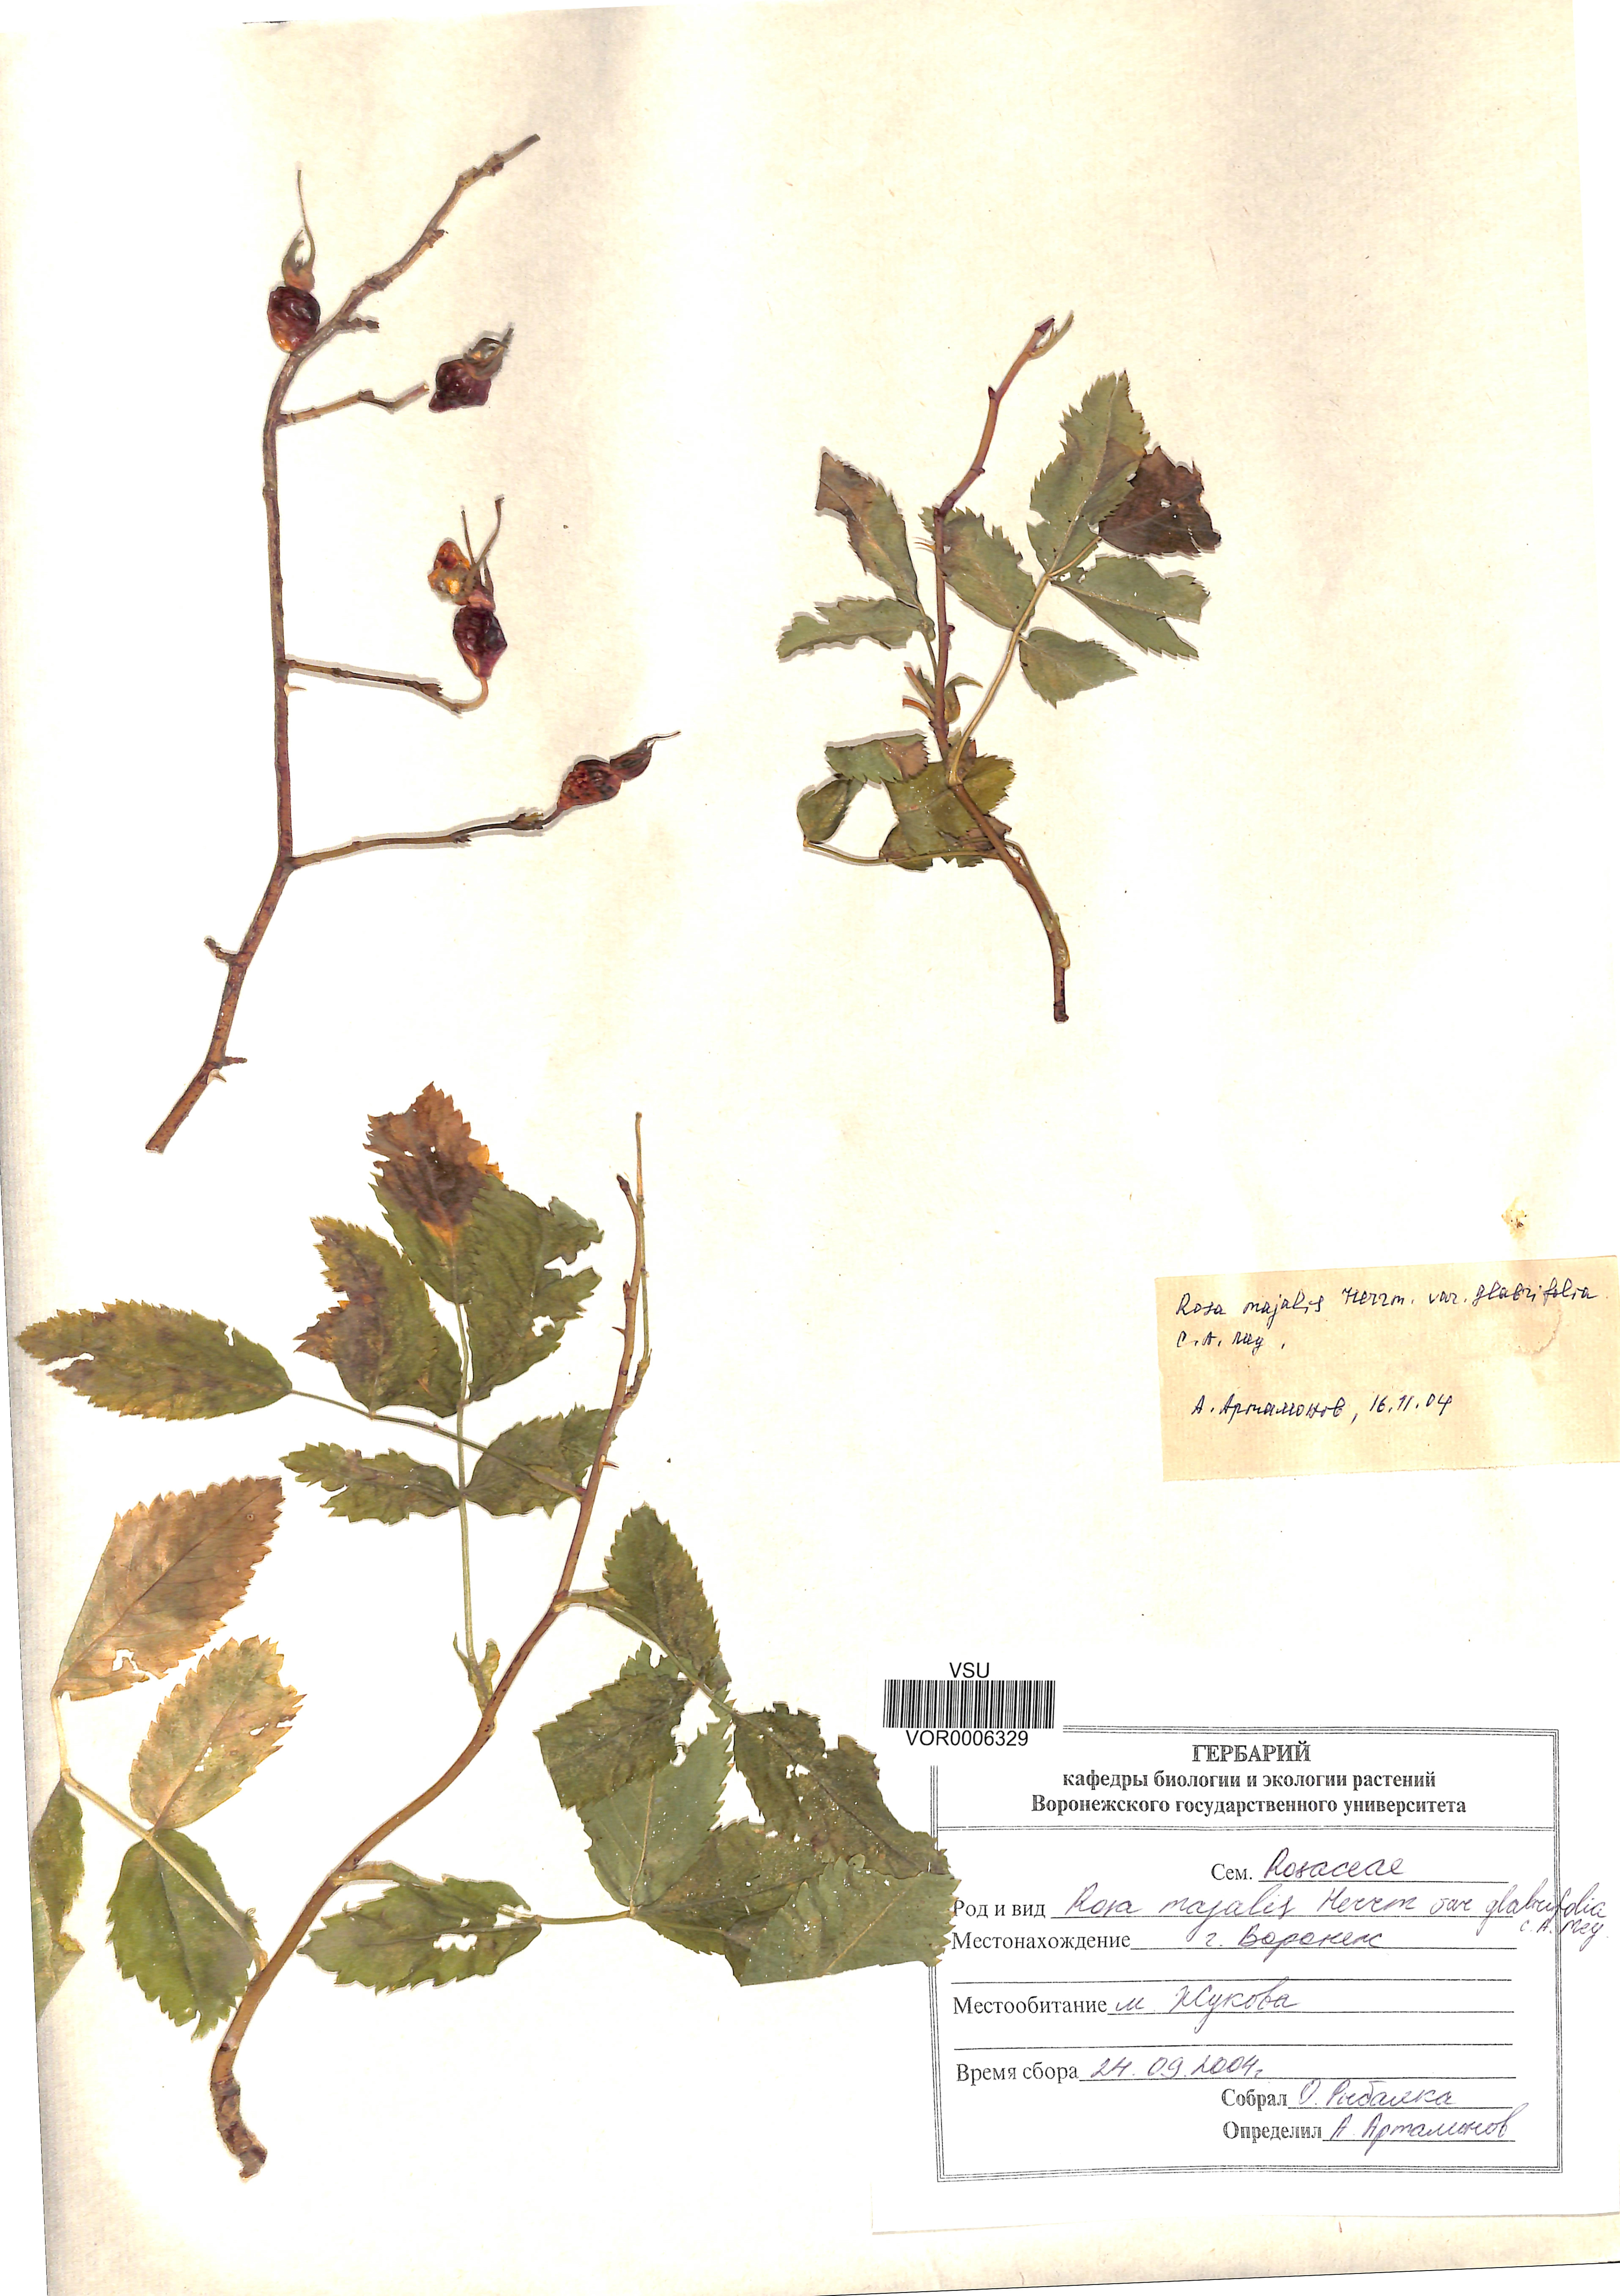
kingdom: Plantae
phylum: Tracheophyta
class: Magnoliopsida
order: Rosales
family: Rosaceae
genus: Rosa
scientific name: Rosa majalis
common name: Cinnamon rose
